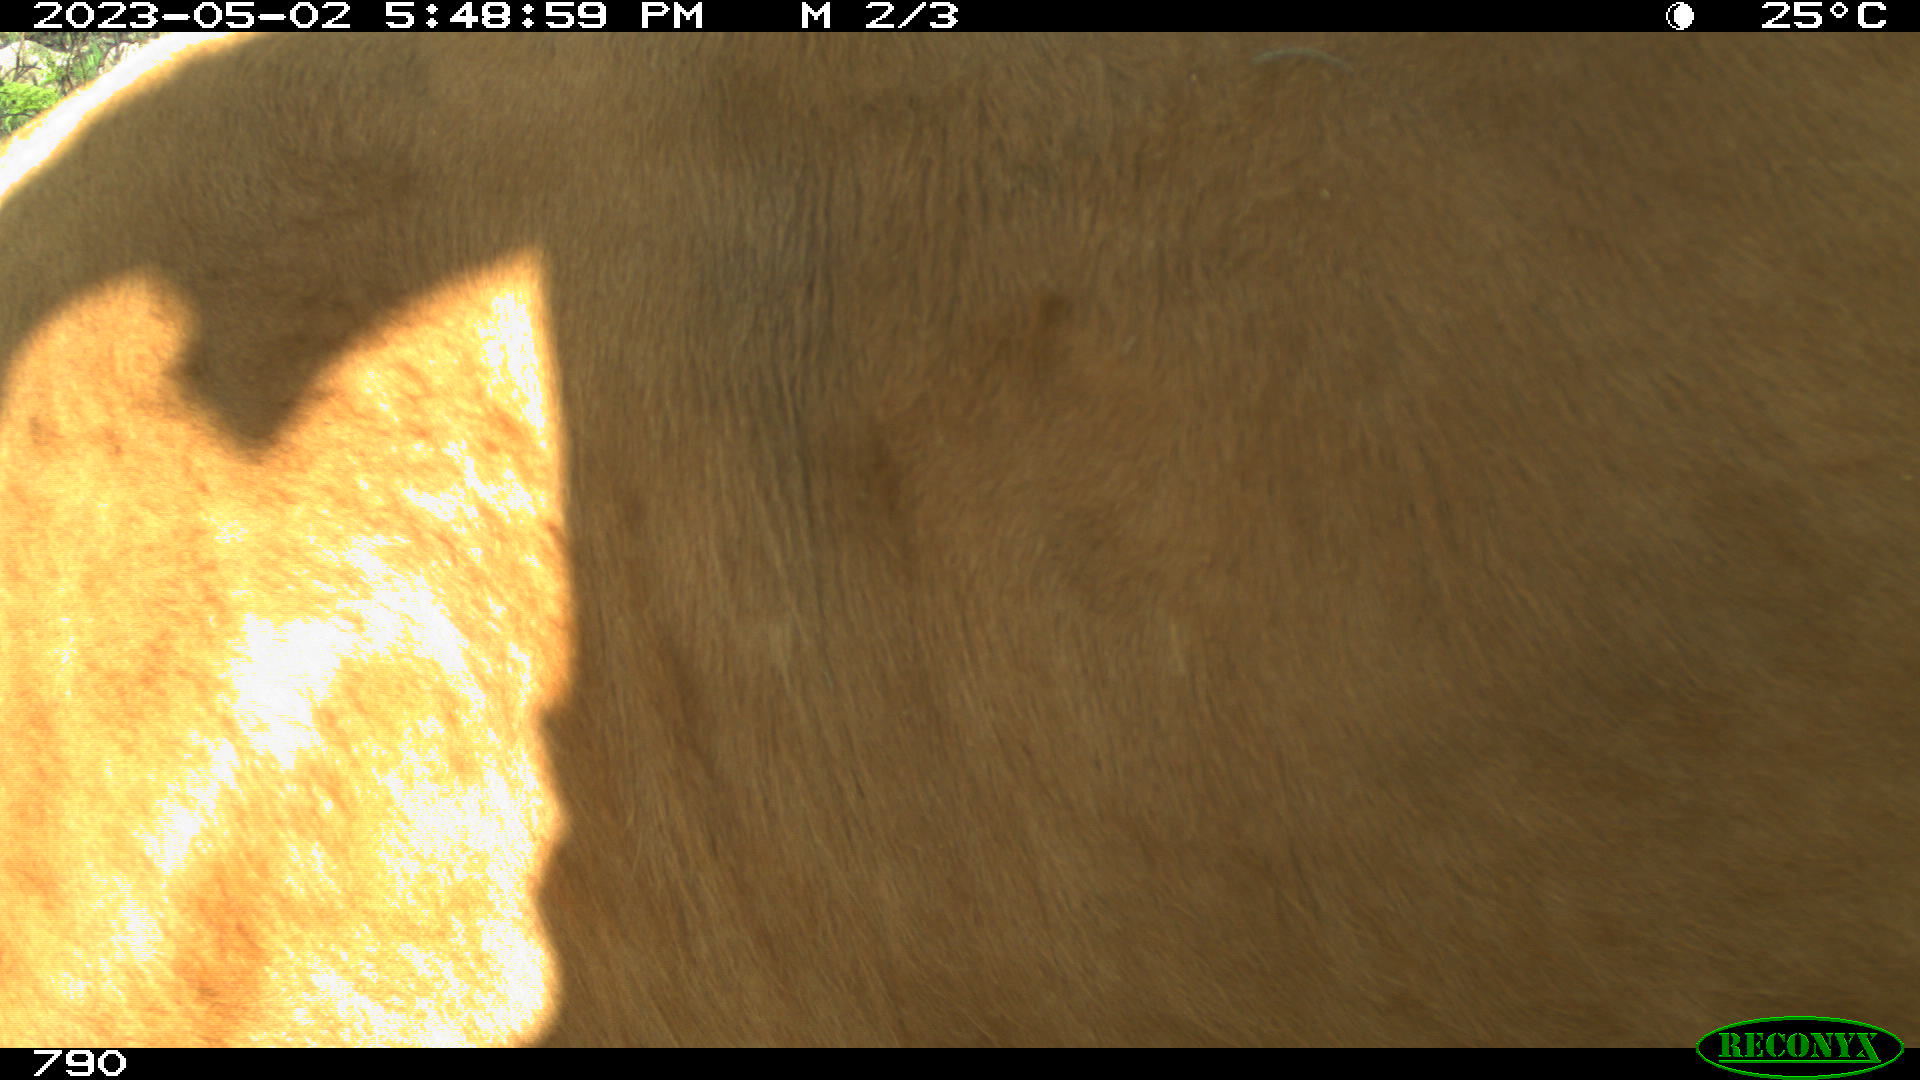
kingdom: Animalia
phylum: Chordata
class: Mammalia
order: Artiodactyla
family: Bovidae
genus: Bos
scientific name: Bos taurus
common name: Domesticated cattle
